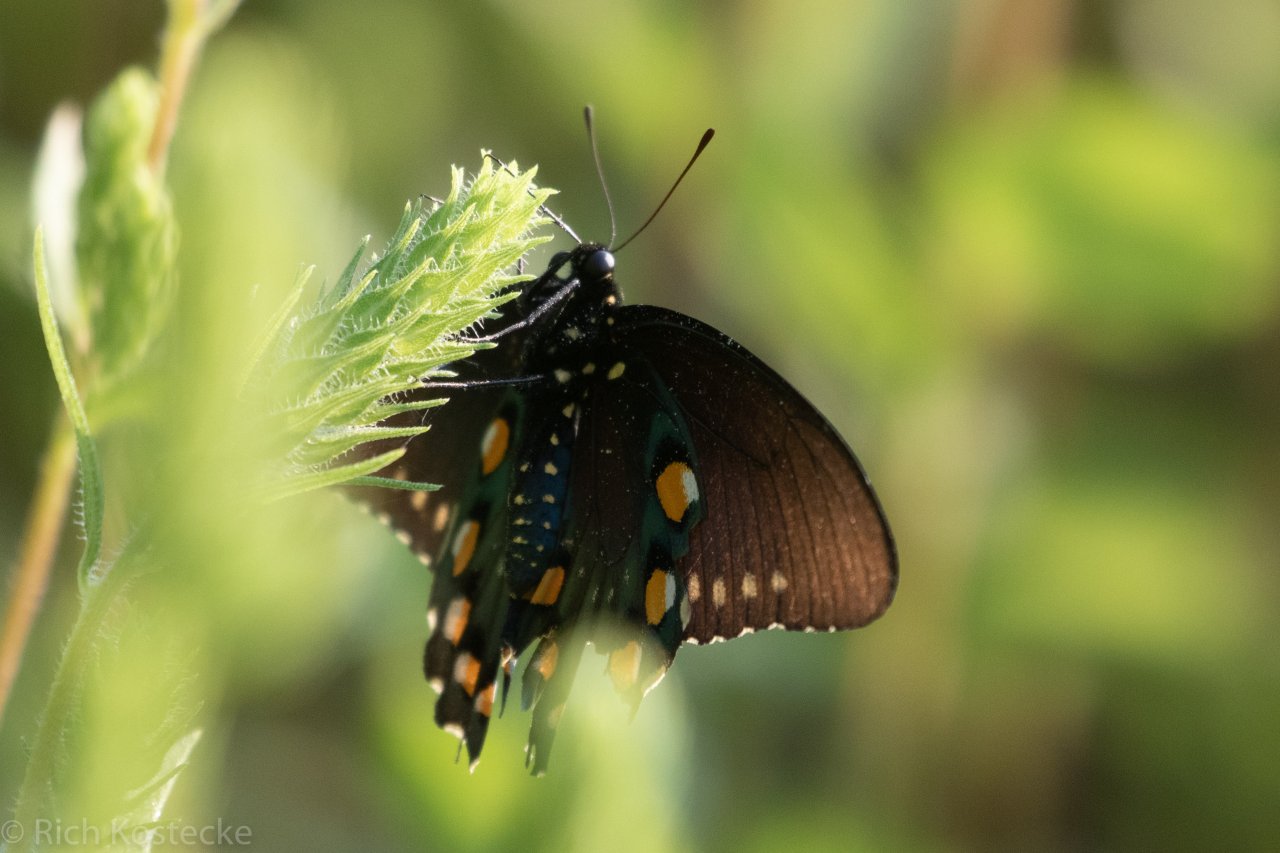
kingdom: Animalia
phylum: Arthropoda
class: Insecta
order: Lepidoptera
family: Papilionidae
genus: Battus
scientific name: Battus philenor
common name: Pipevine Swallowtail
